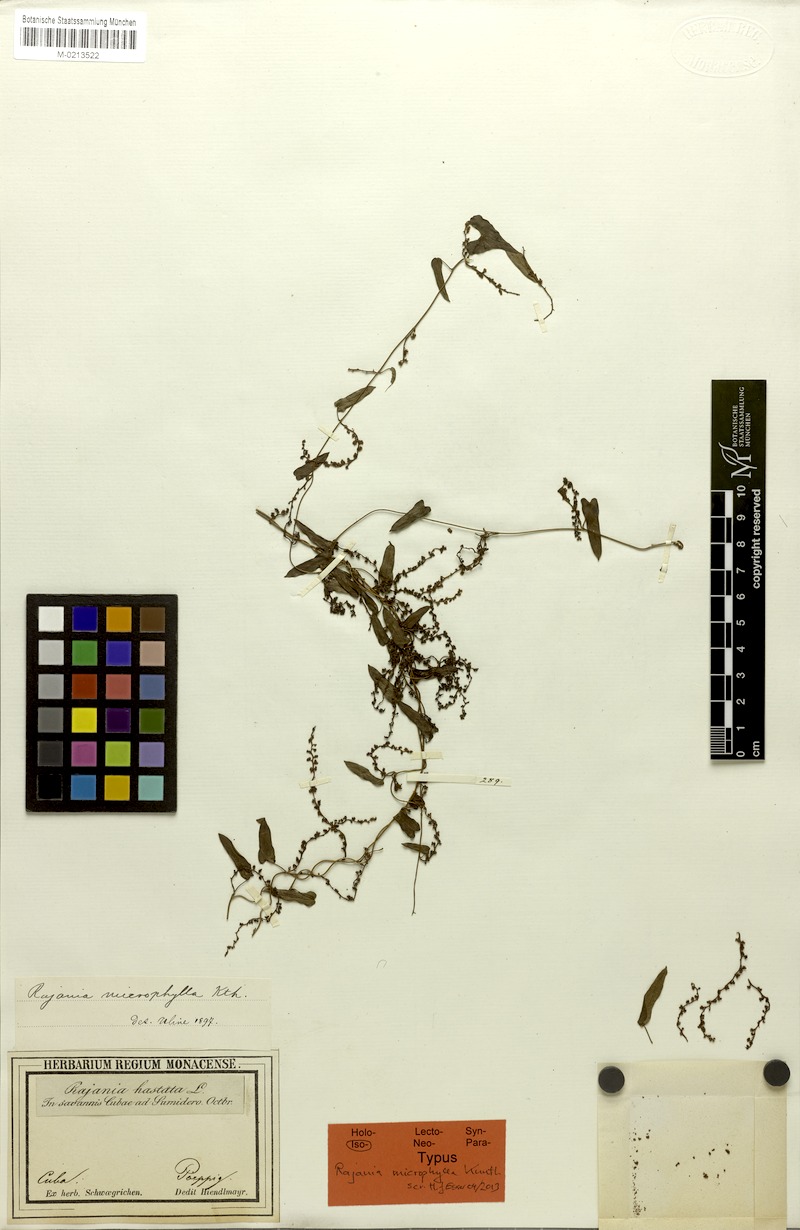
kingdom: Plantae
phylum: Tracheophyta
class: Liliopsida
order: Dioscoreales
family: Dioscoreaceae
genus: Dioscorea
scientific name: Dioscorea microphylla
